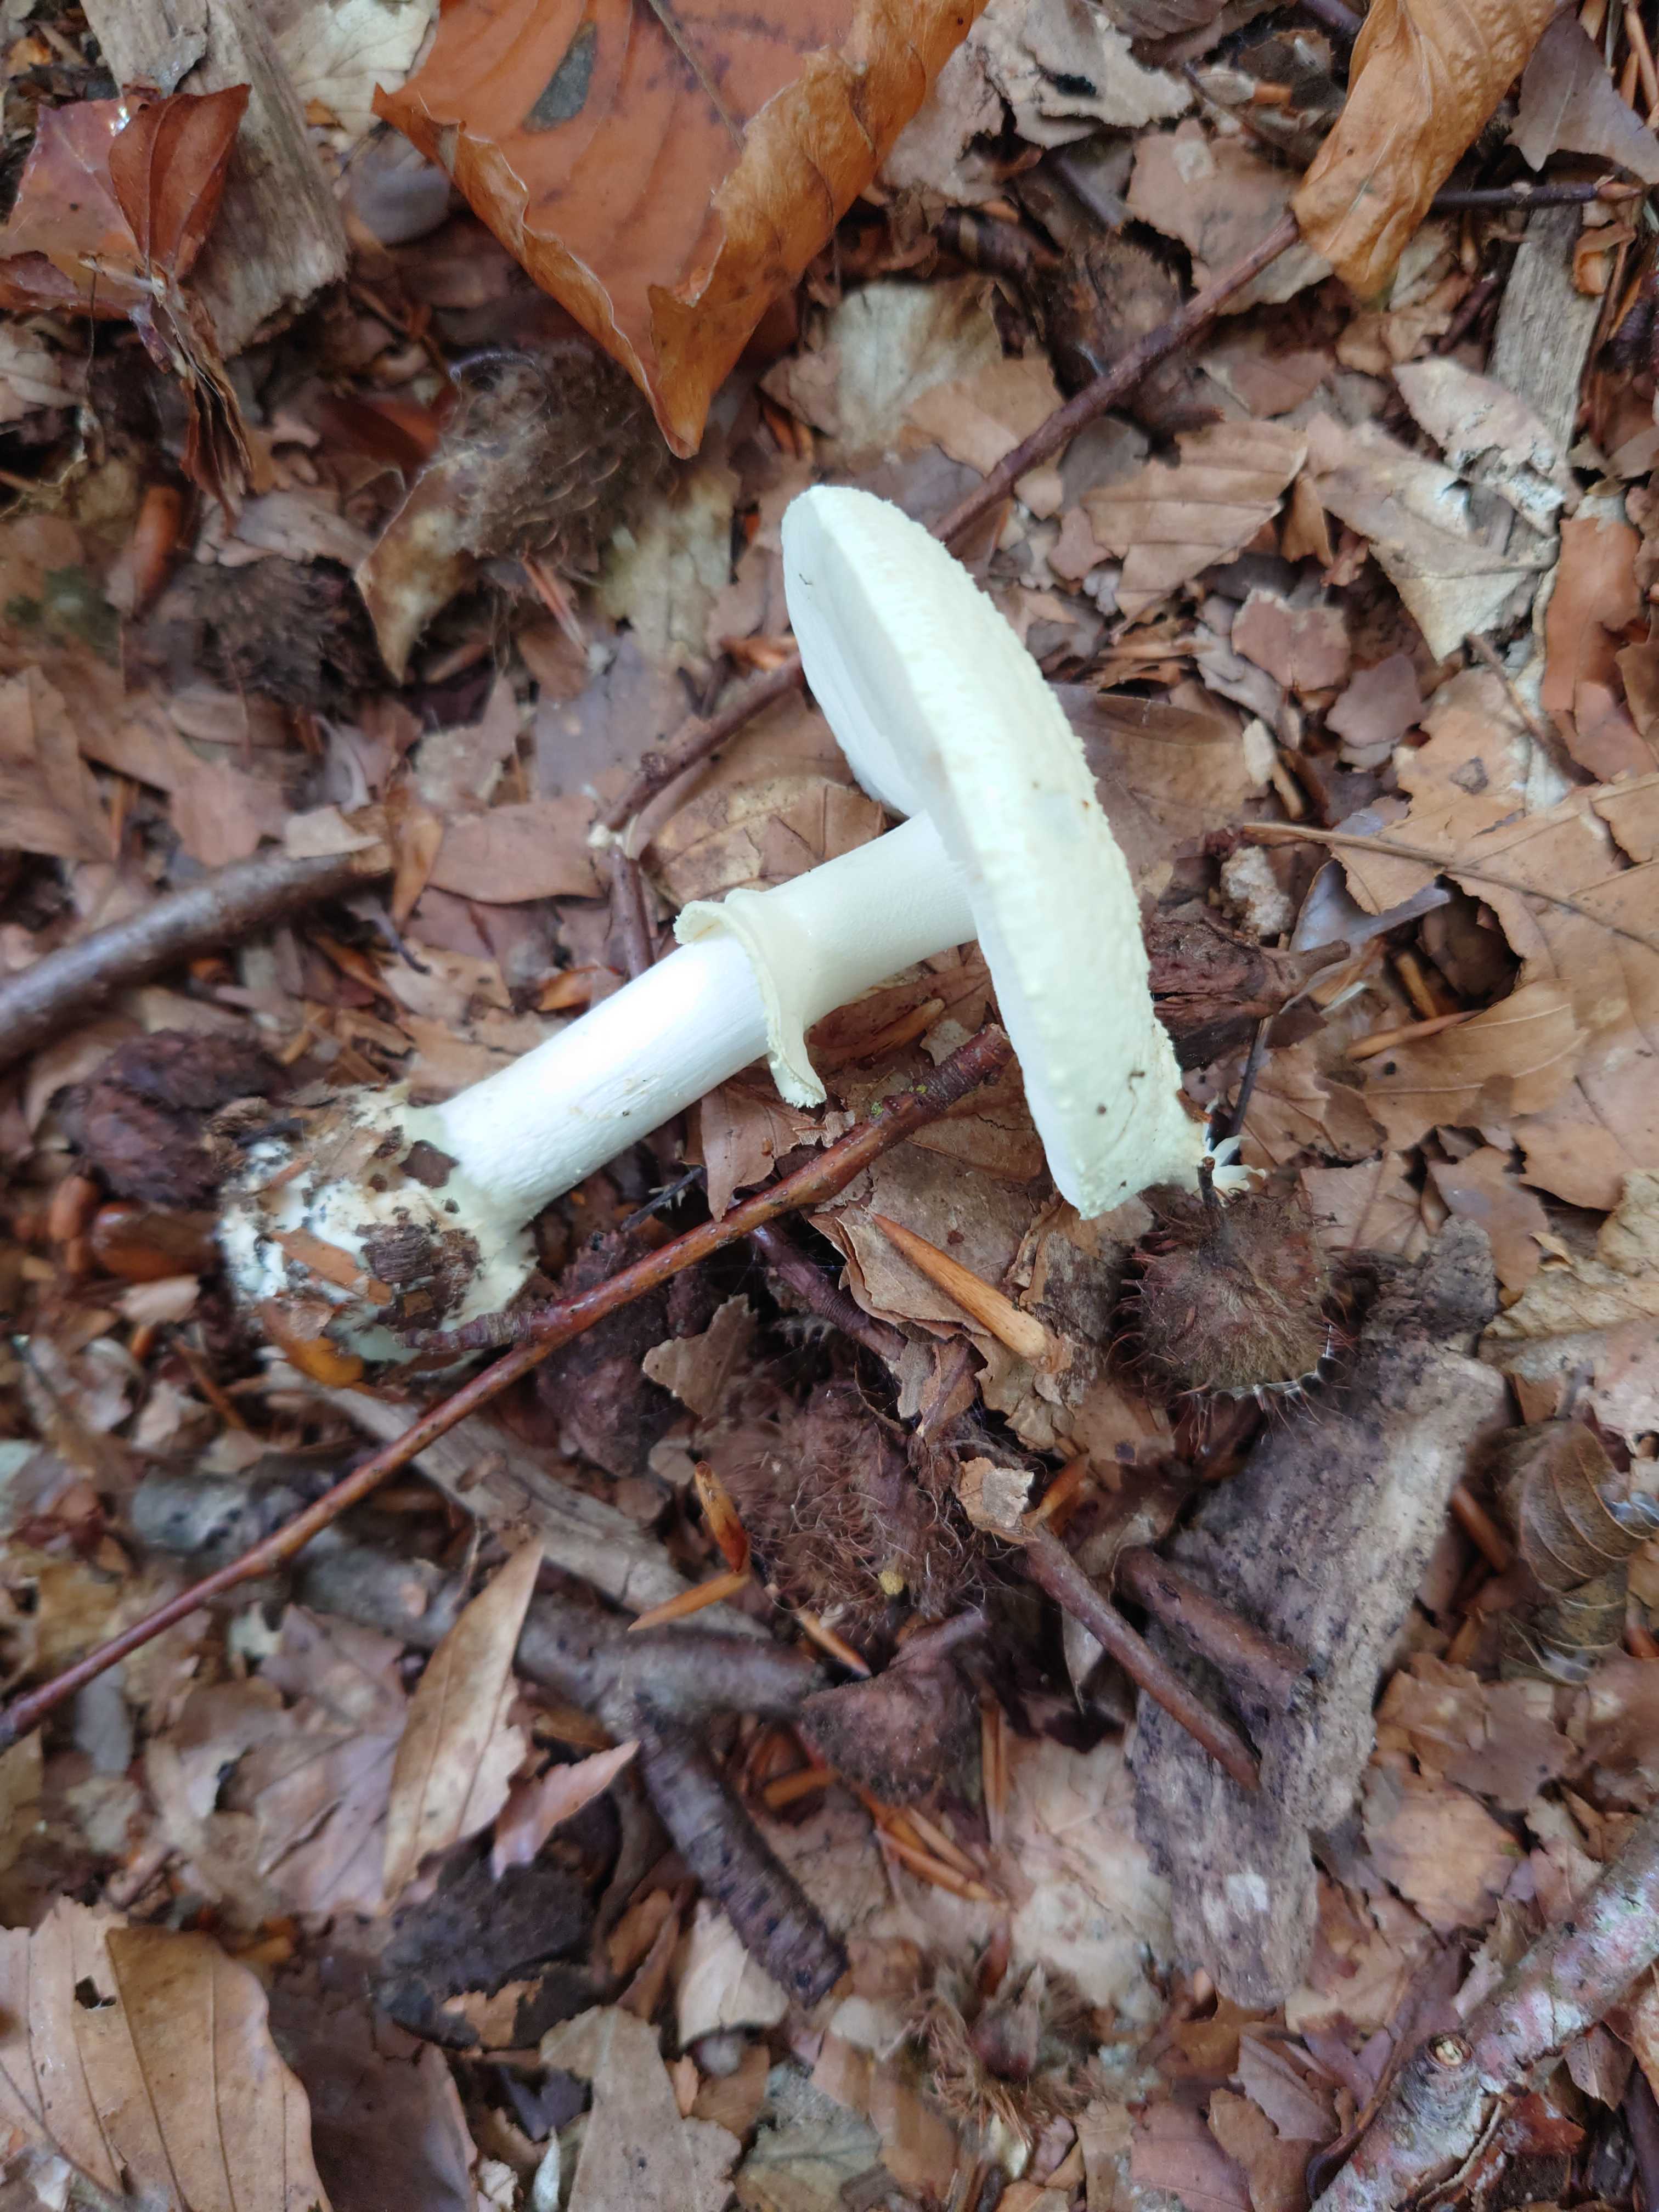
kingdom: Fungi
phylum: Basidiomycota
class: Agaricomycetes
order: Agaricales
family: Amanitaceae
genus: Amanita
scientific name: Amanita citrina
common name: kugleknoldet fluesvamp
